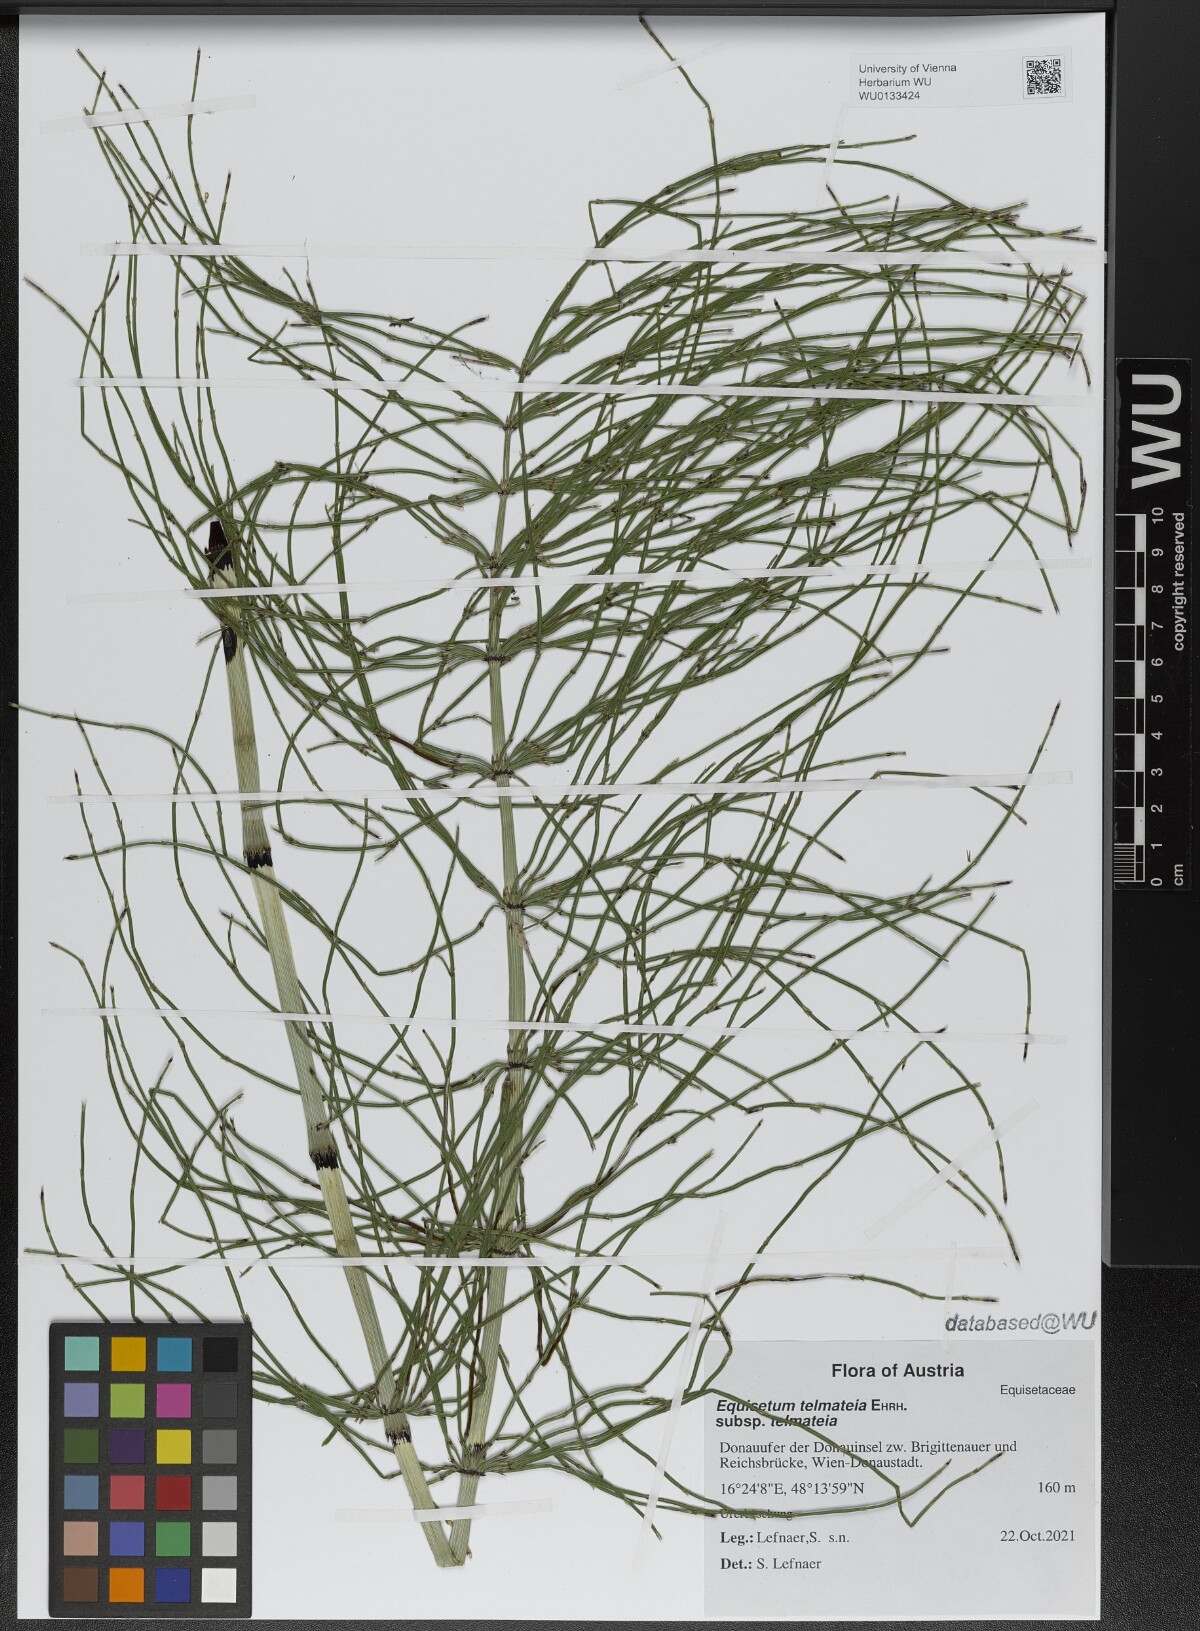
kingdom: Plantae
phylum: Tracheophyta
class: Polypodiopsida
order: Equisetales
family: Equisetaceae
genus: Equisetum
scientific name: Equisetum telmateia
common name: Great horsetail
